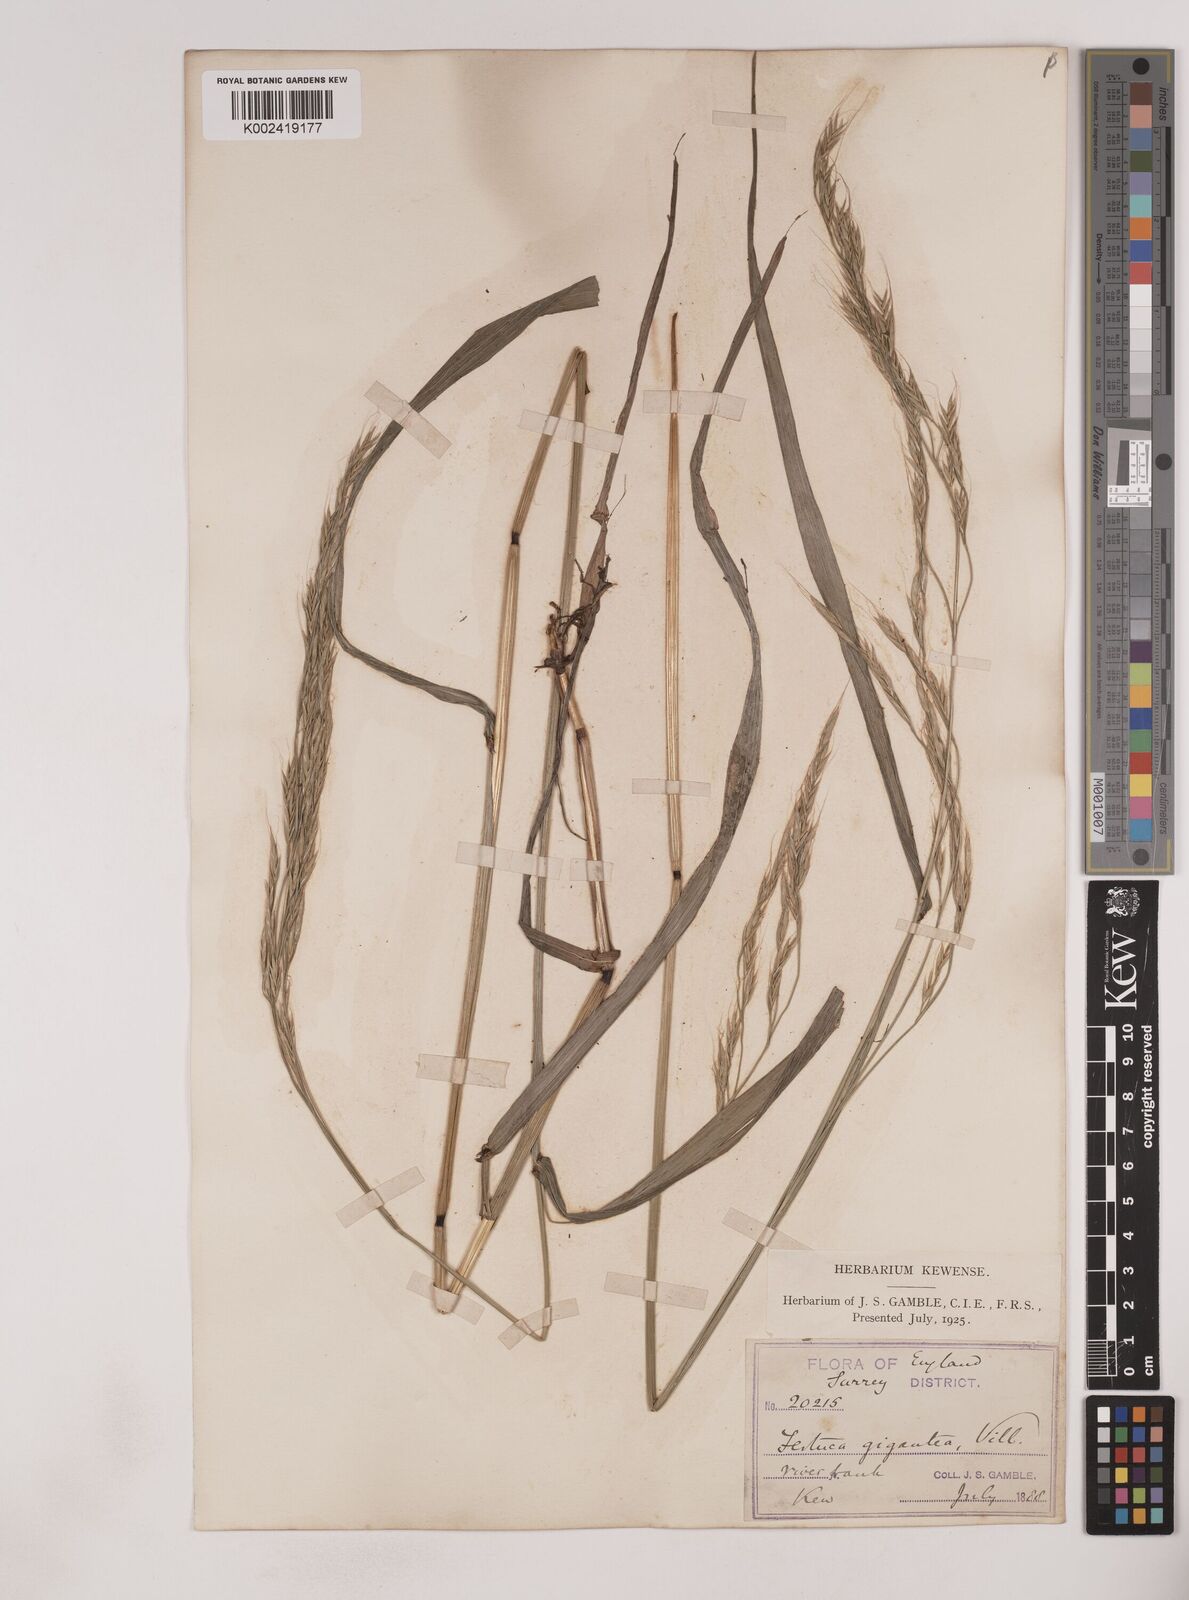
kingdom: Plantae
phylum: Tracheophyta
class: Liliopsida
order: Poales
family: Poaceae
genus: Lolium
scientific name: Lolium giganteum
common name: Giant fescue
